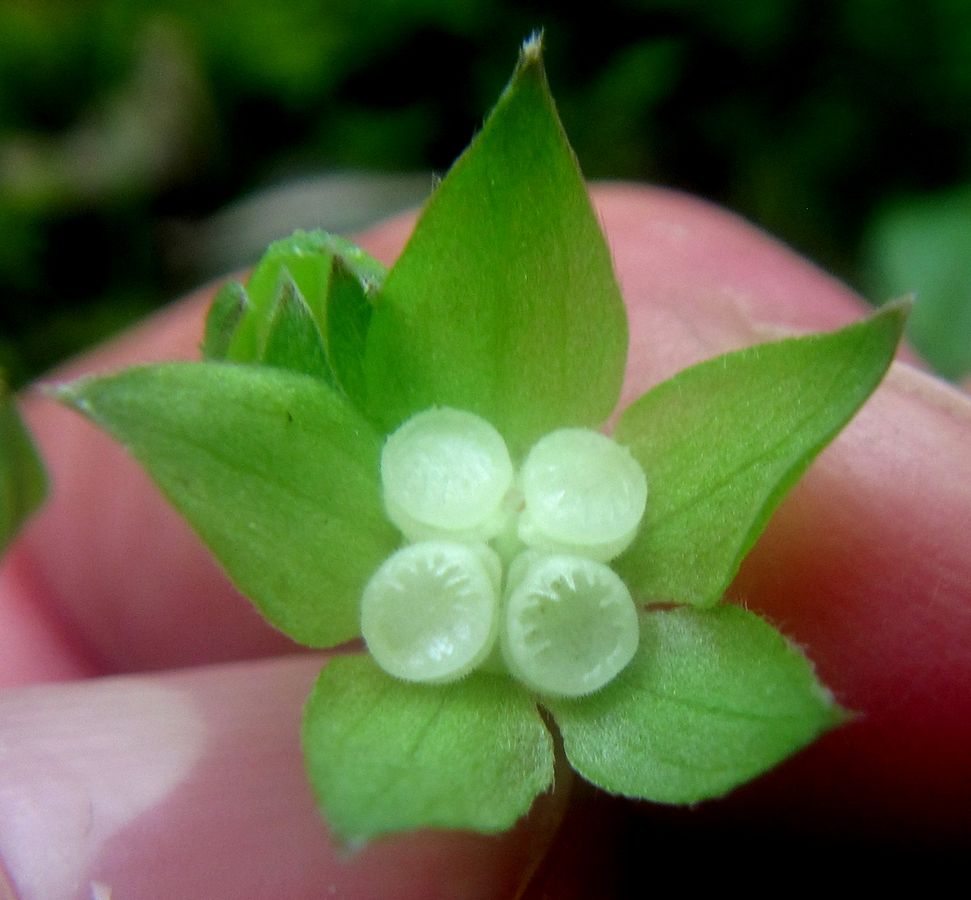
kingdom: Plantae
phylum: Tracheophyta
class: Magnoliopsida
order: Boraginales
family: Boraginaceae
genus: Omphalodes
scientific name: Omphalodes cappadocica
